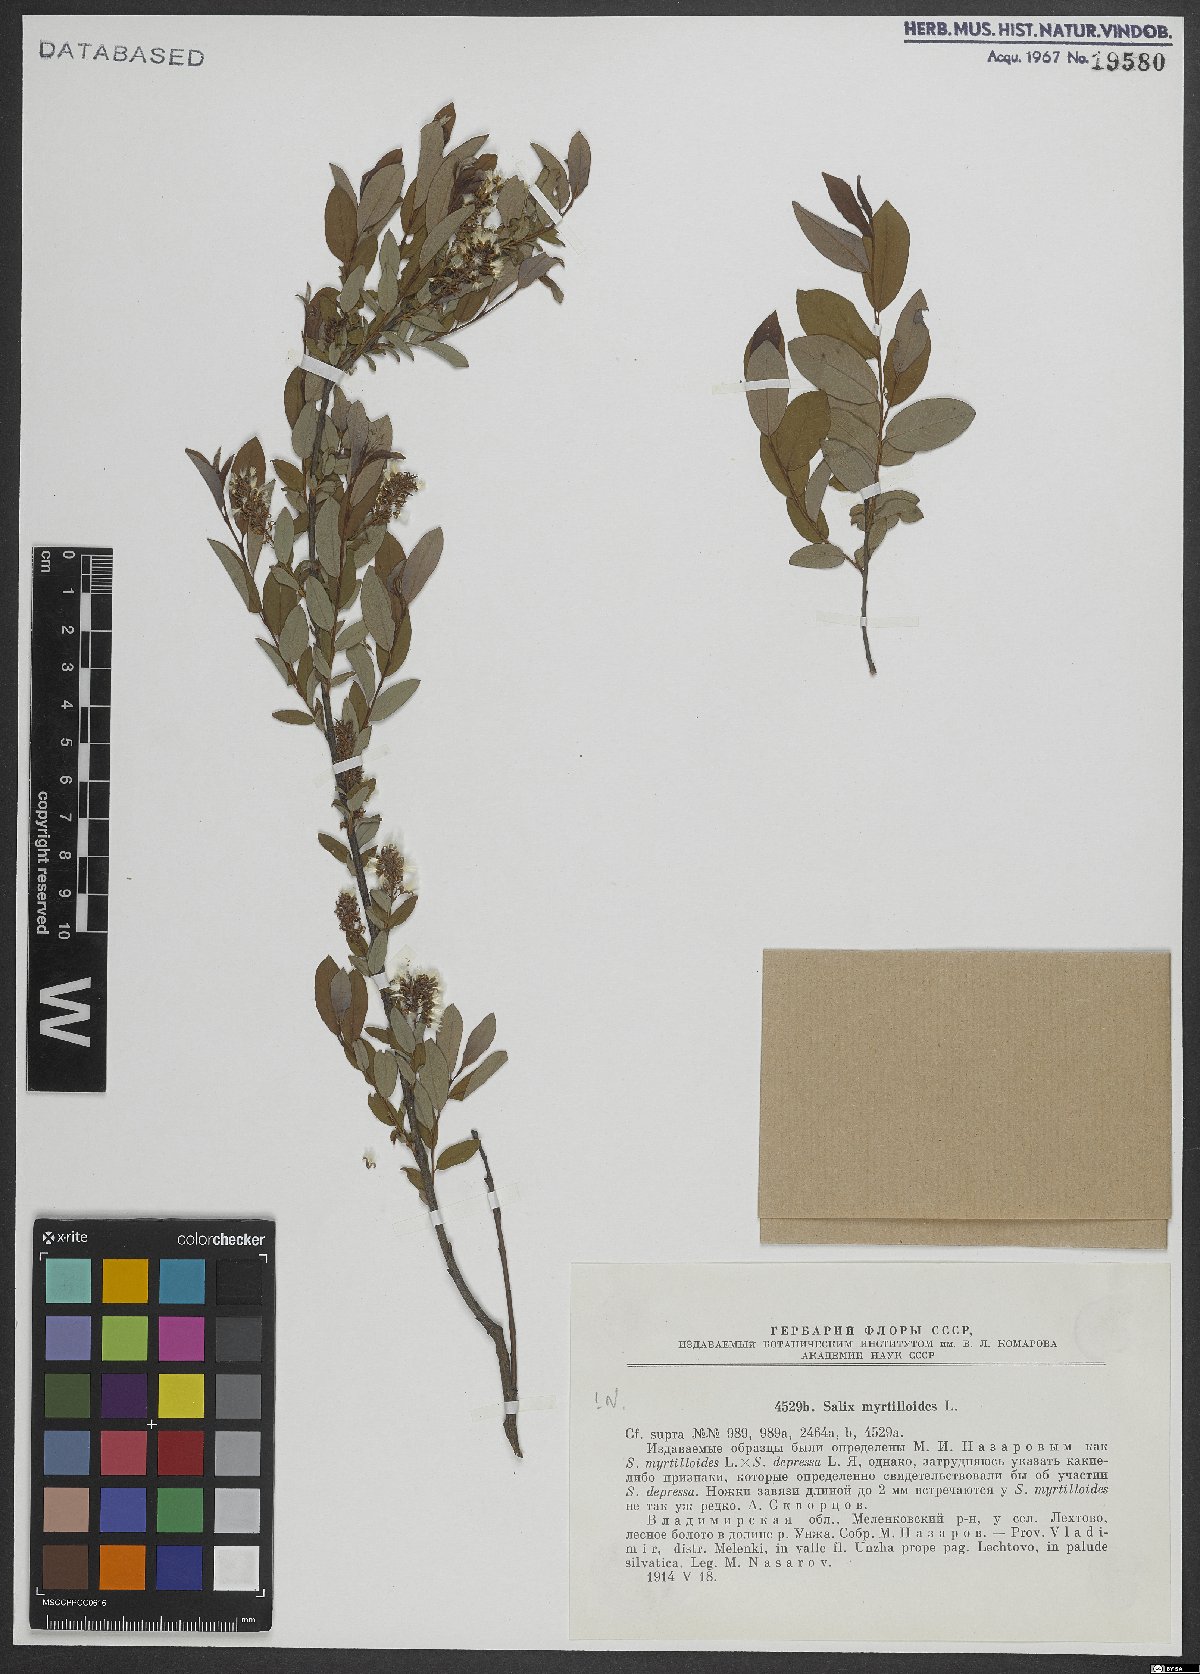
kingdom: Plantae
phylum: Tracheophyta
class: Magnoliopsida
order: Malpighiales
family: Salicaceae
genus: Salix
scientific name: Salix myrtilloides
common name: Myrtle-leaved willow
